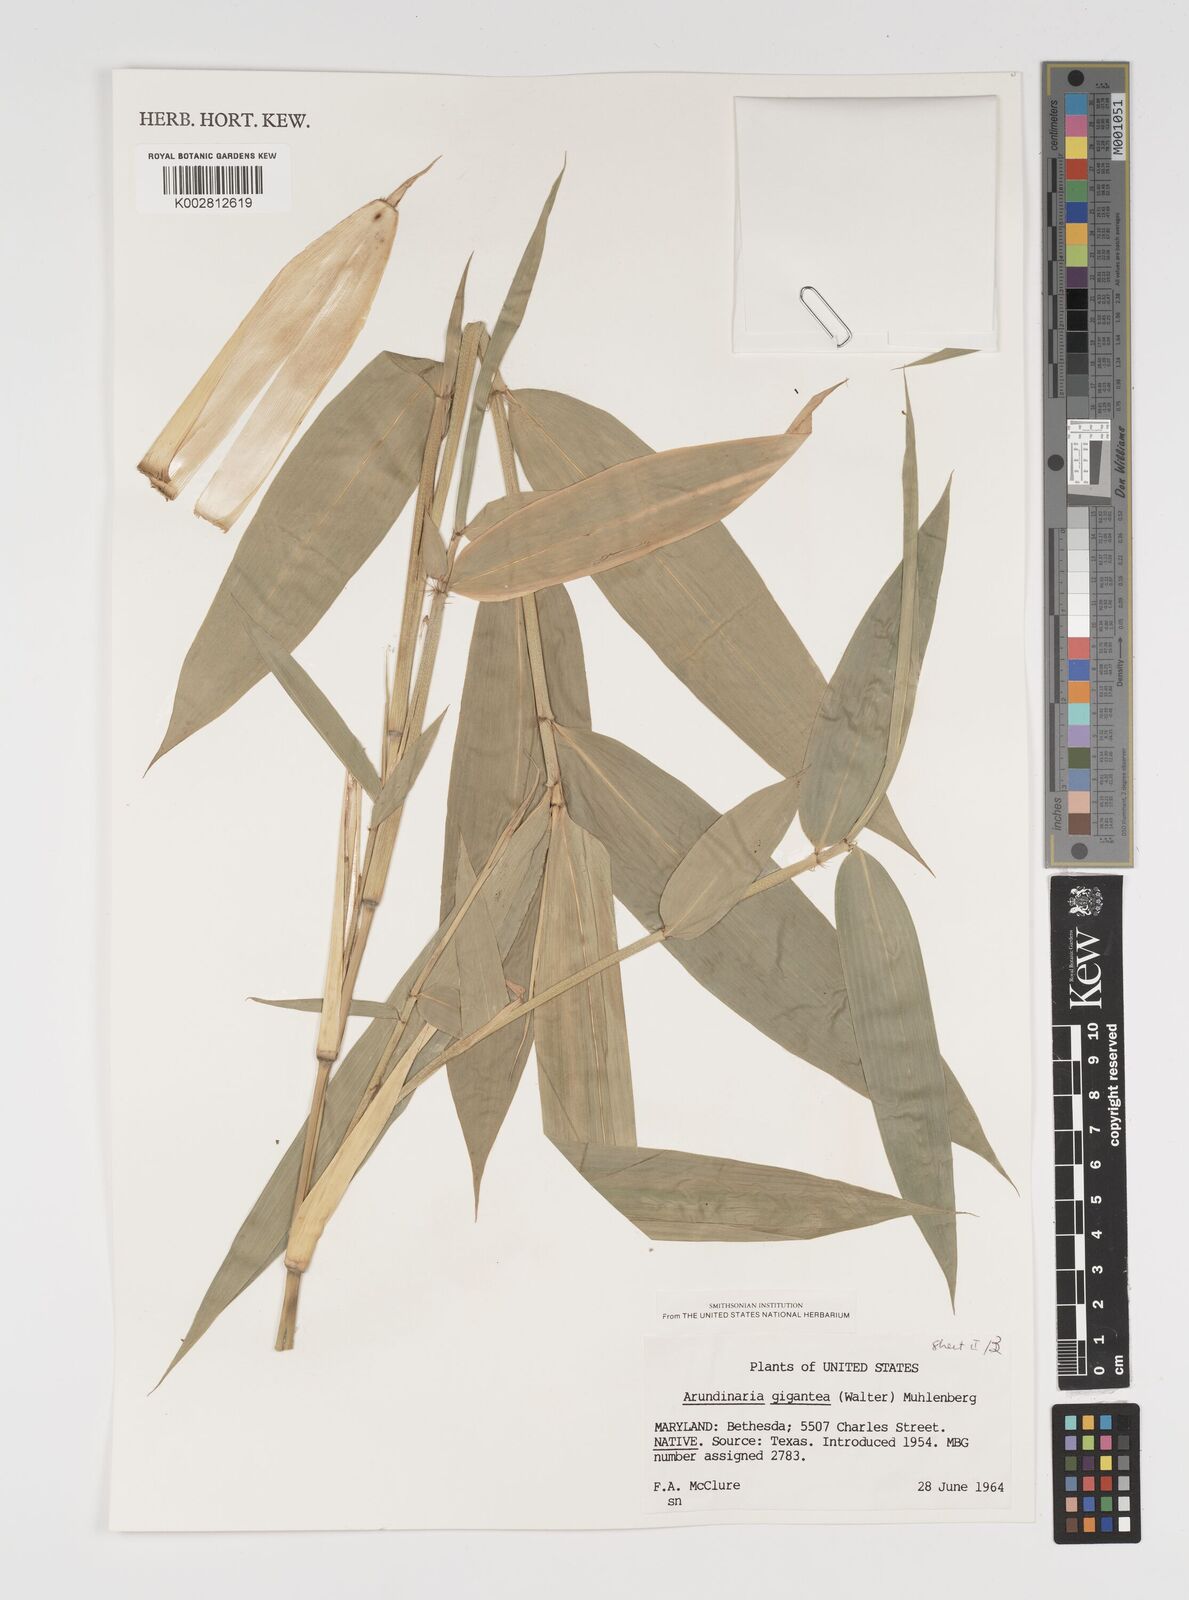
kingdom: Plantae
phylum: Tracheophyta
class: Liliopsida
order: Poales
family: Poaceae
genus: Arundinaria
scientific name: Arundinaria
